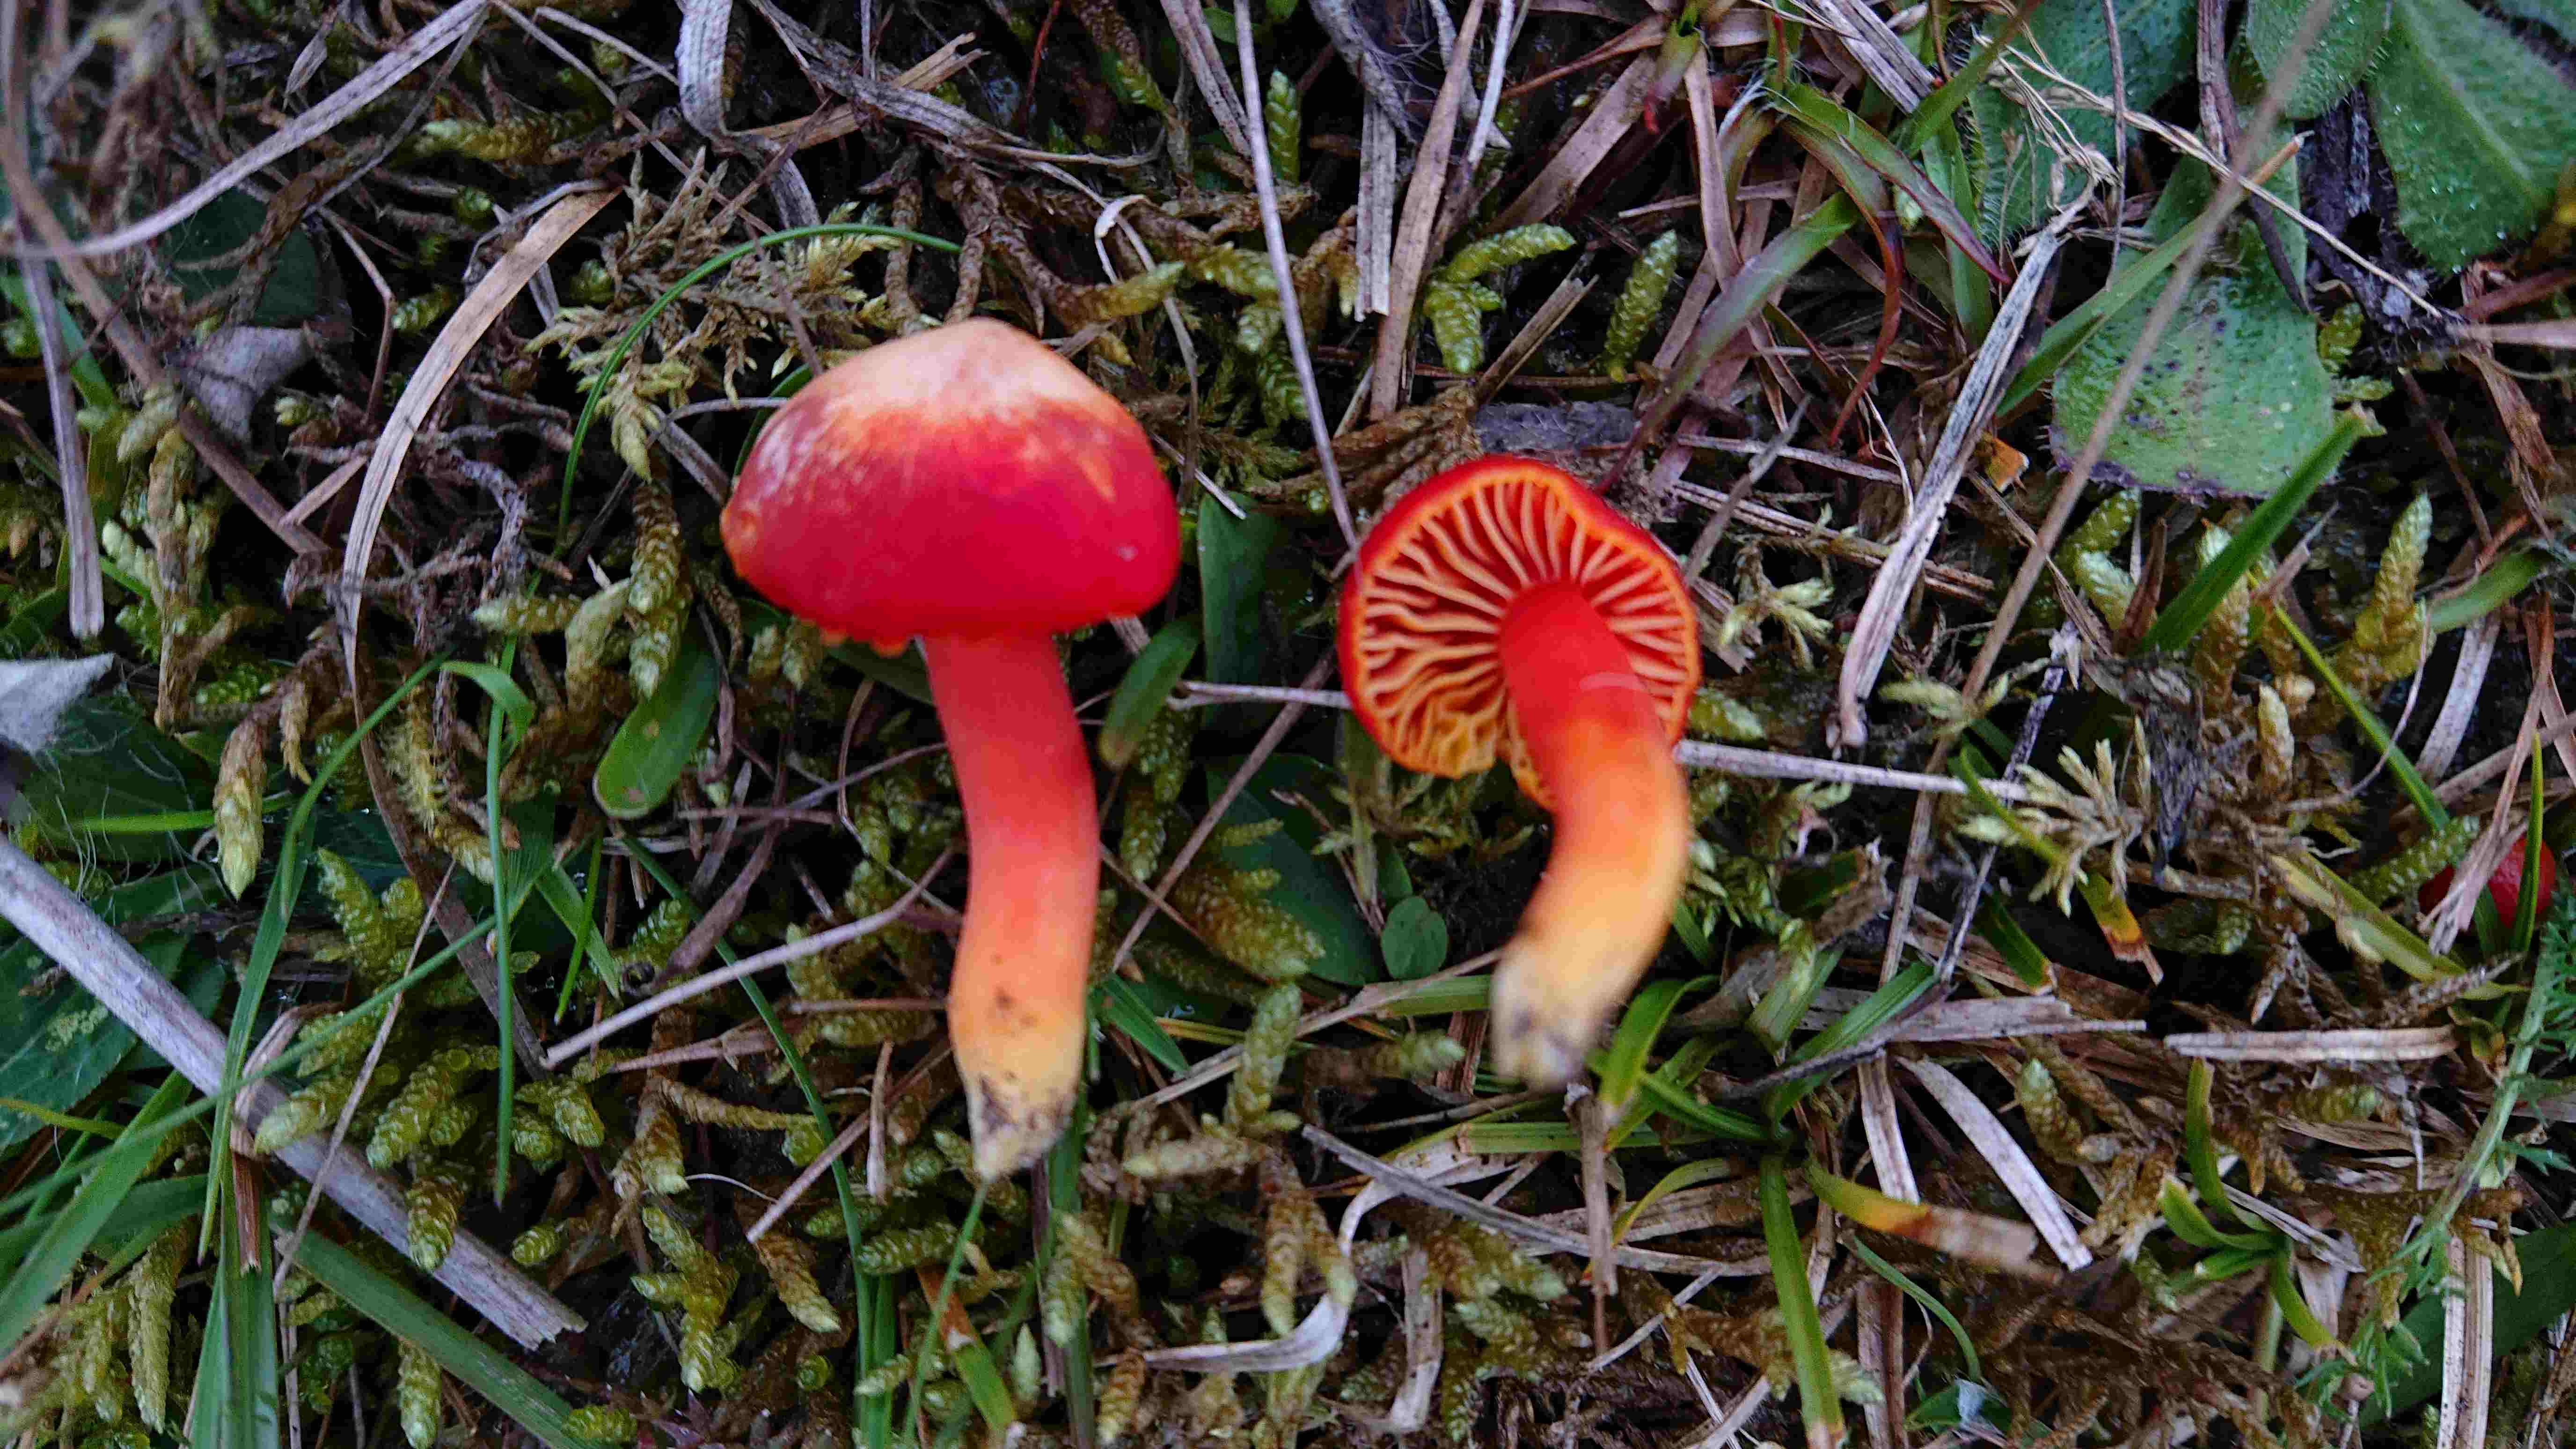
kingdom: Fungi
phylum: Basidiomycota
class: Agaricomycetes
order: Agaricales
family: Hygrophoraceae
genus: Hygrocybe
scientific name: Hygrocybe coccinea
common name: cinnober-vokshat
